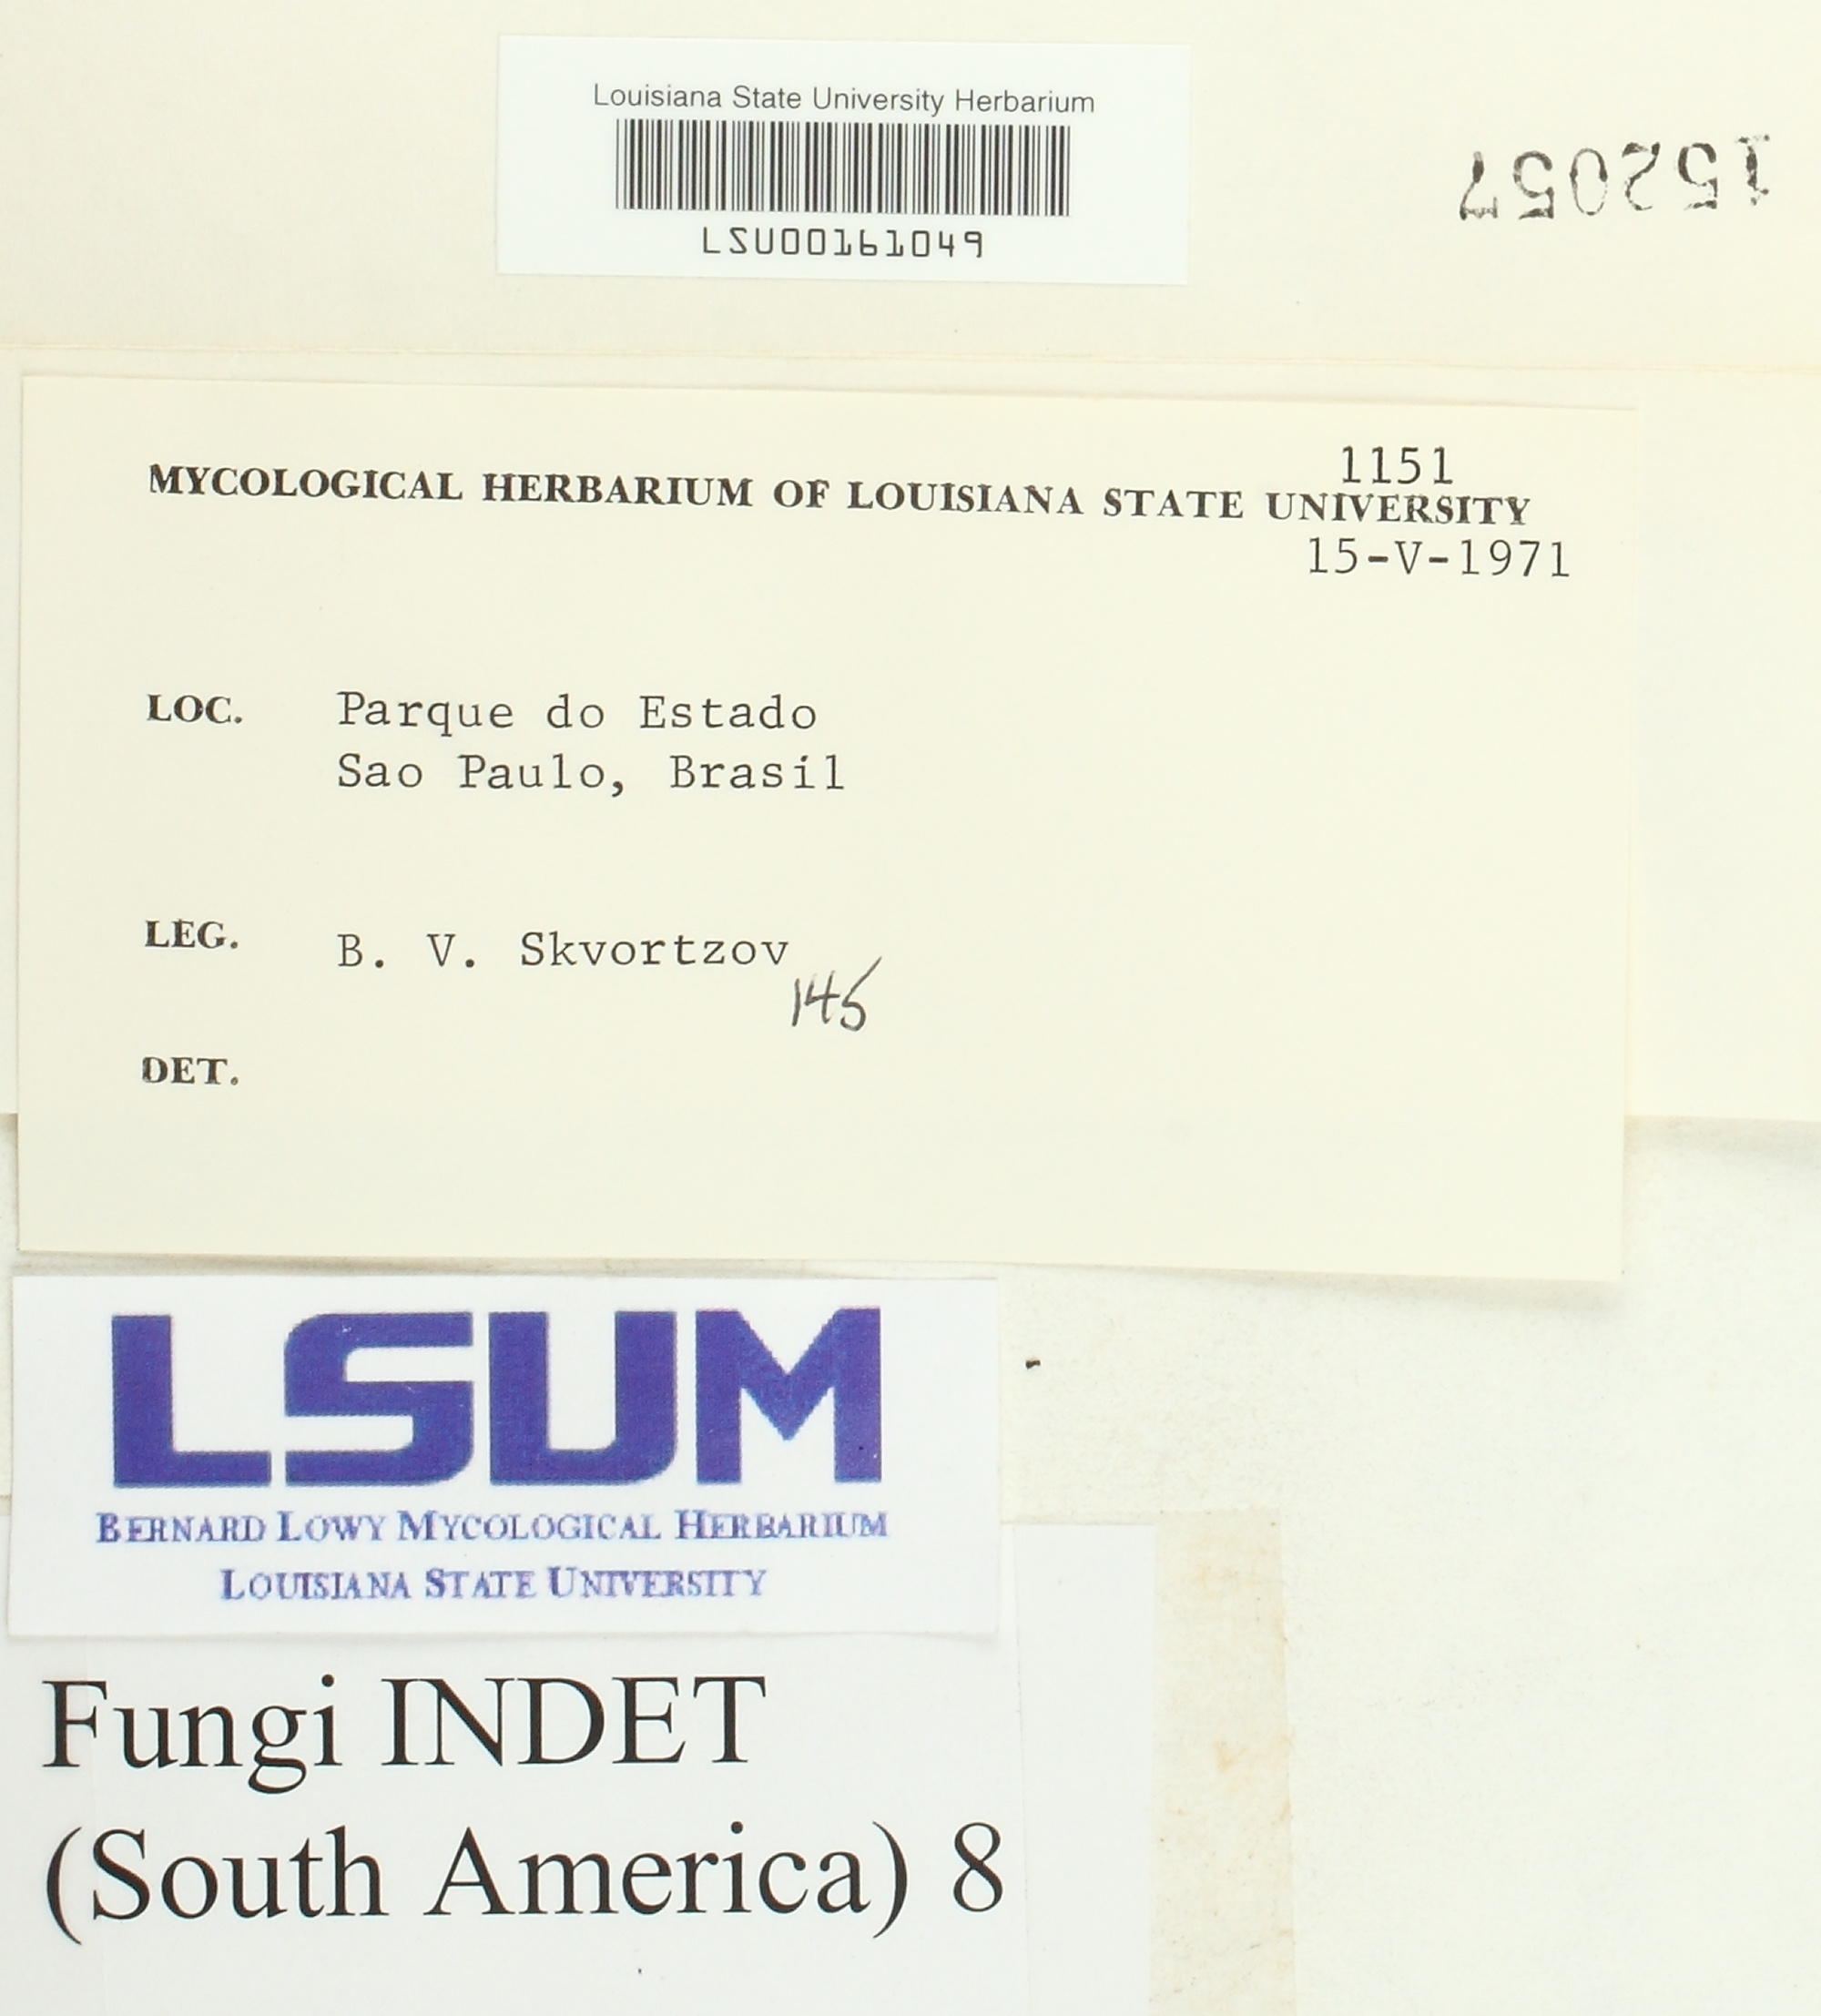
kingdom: Fungi
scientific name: Fungi
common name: Fungi
